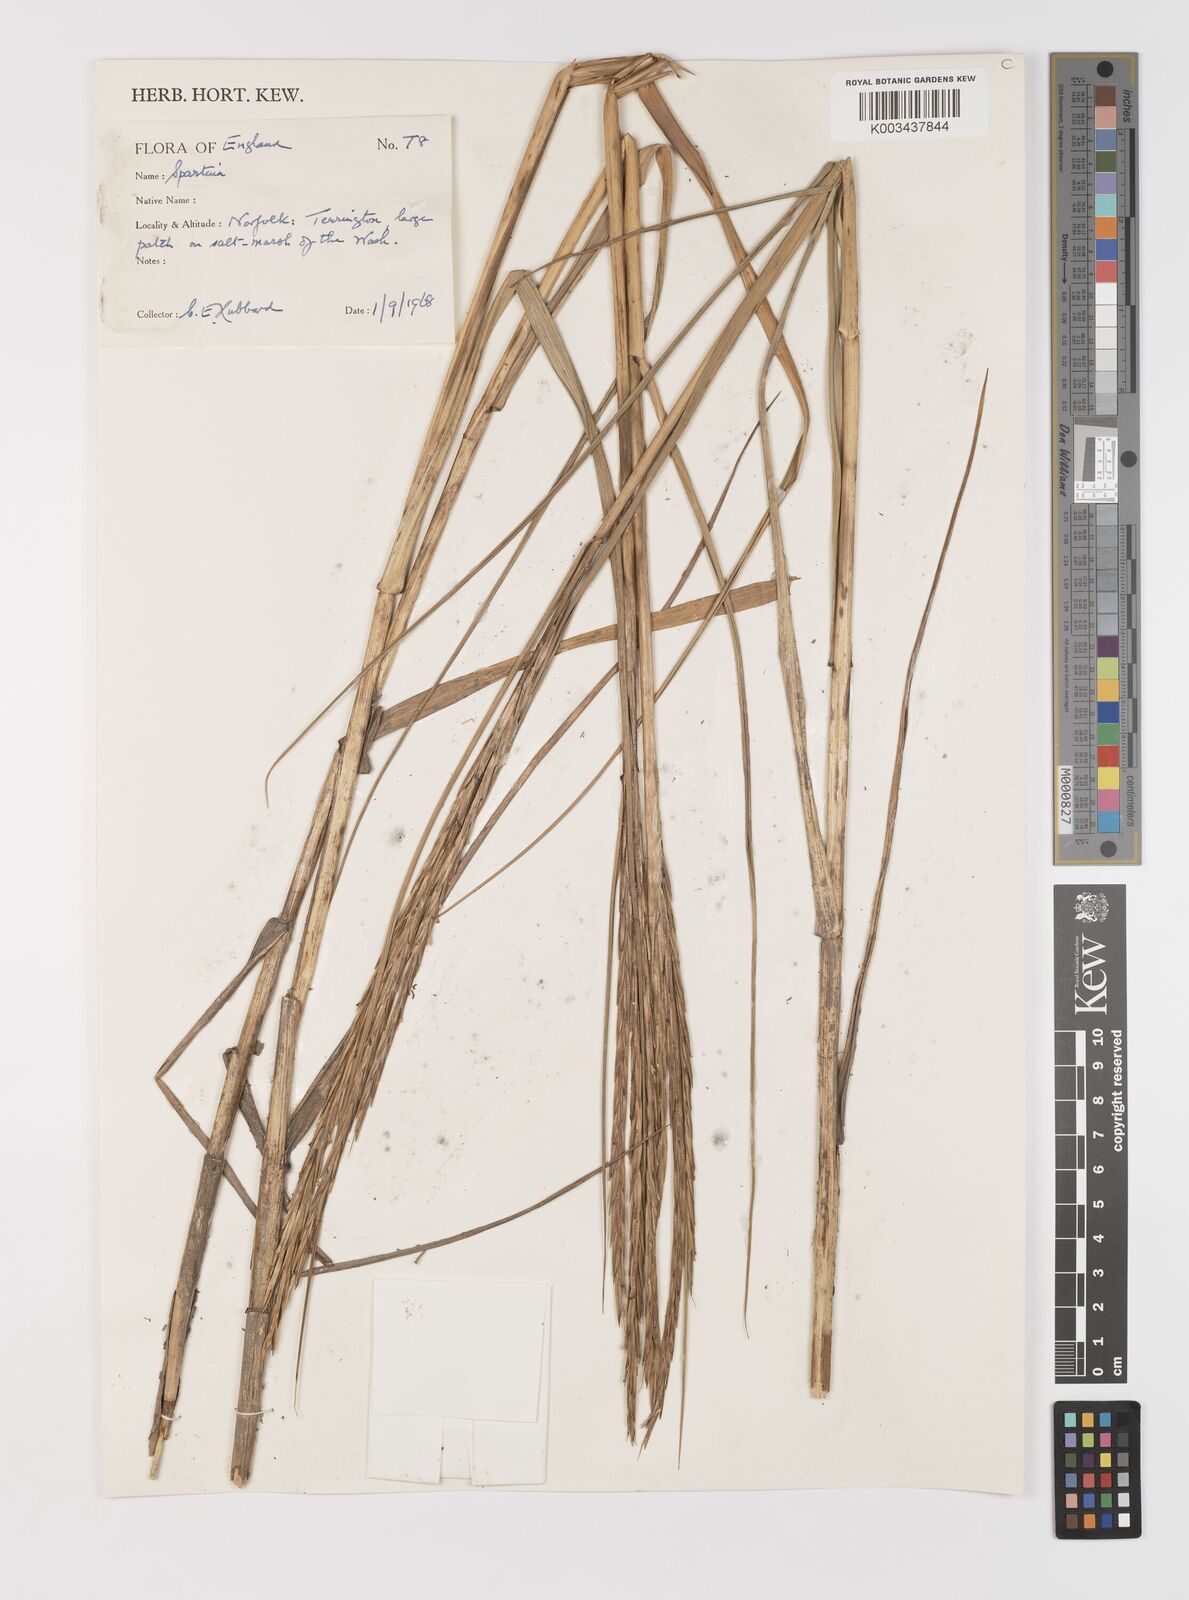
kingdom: Animalia
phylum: Mollusca
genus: Spartina
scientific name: Spartina
